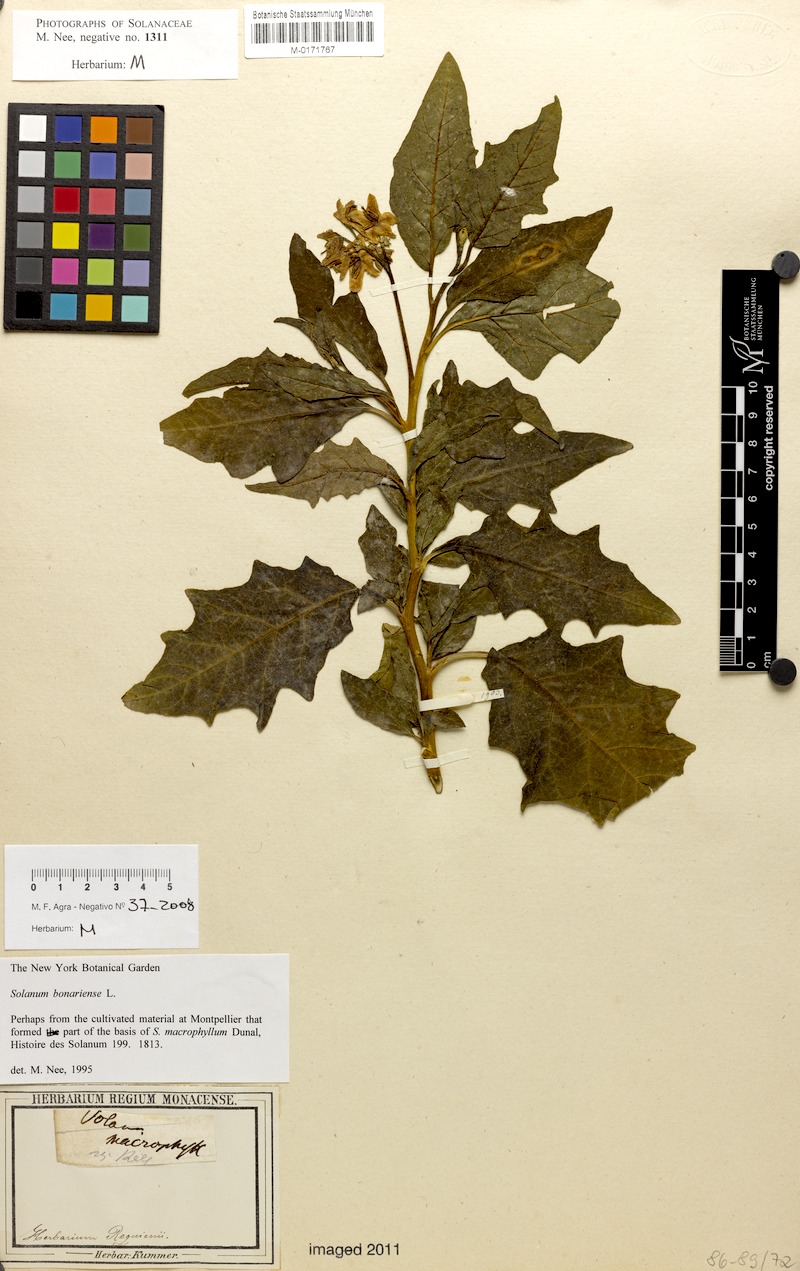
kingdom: Plantae
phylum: Tracheophyta
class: Magnoliopsida
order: Solanales
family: Solanaceae
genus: Solanum
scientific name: Solanum bonariense
